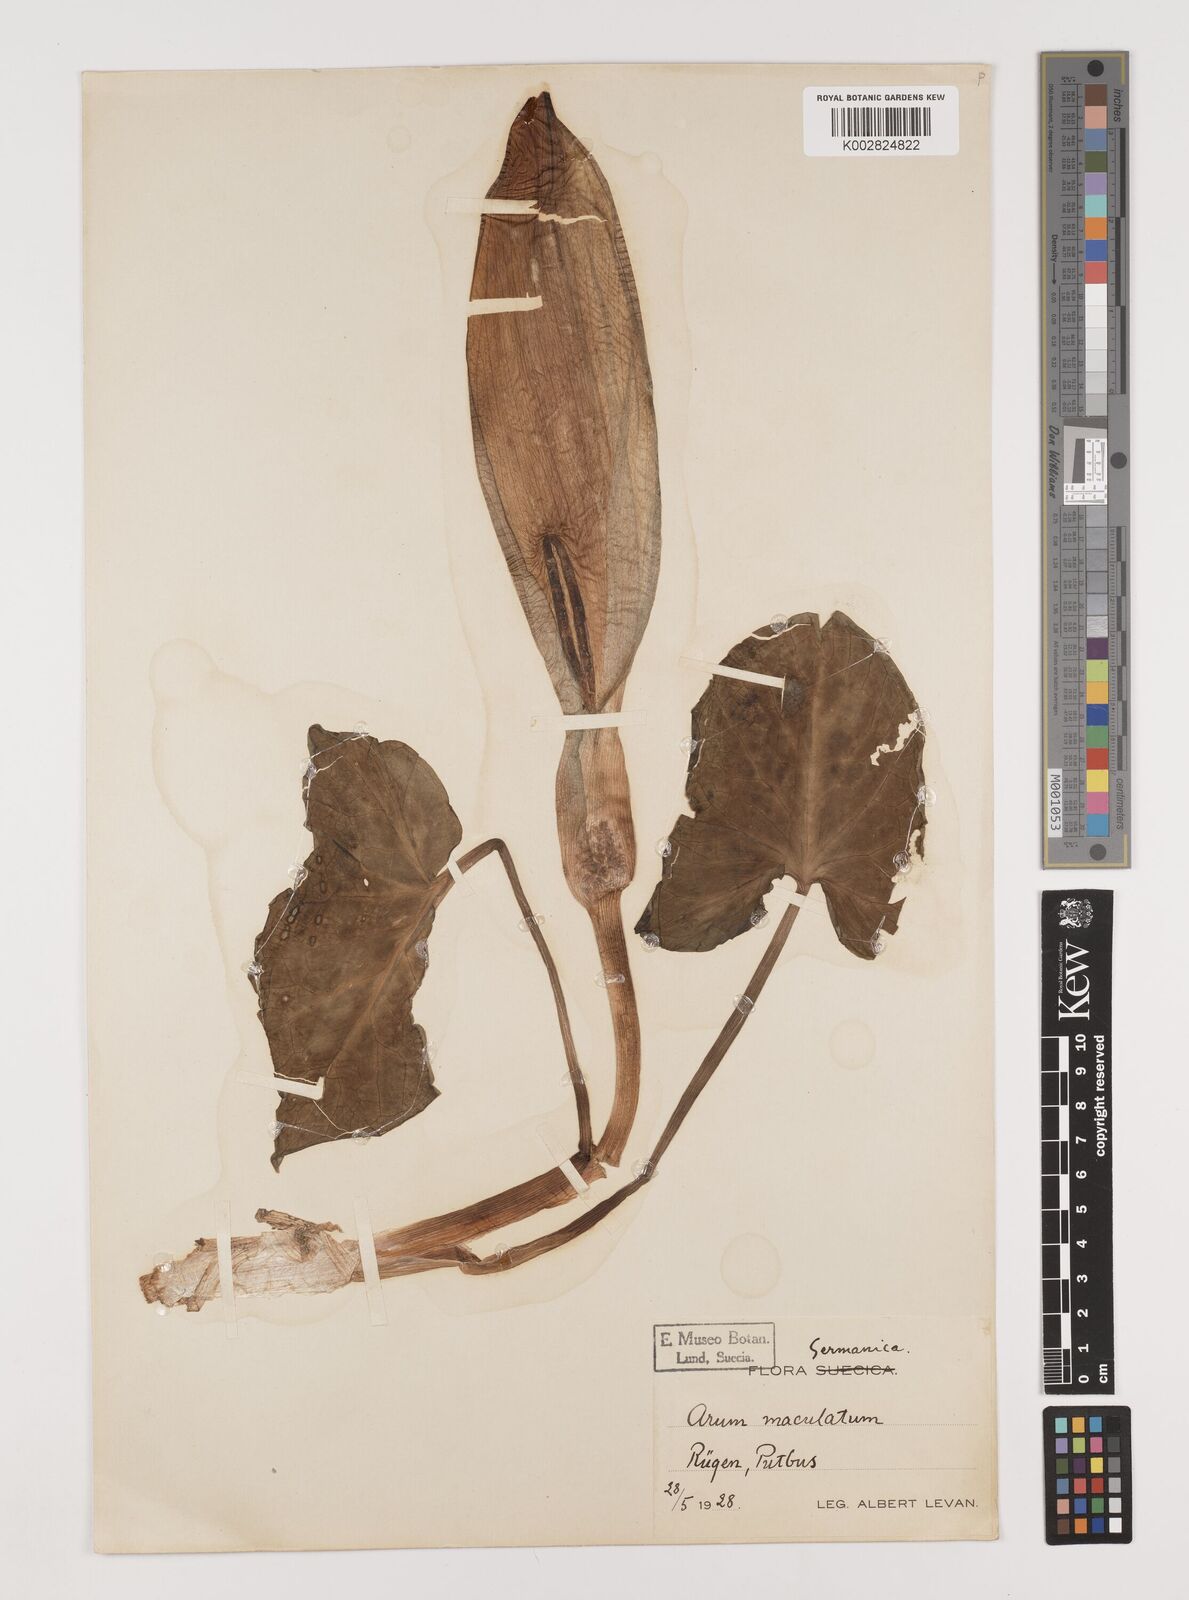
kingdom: Plantae
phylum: Tracheophyta
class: Liliopsida
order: Alismatales
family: Araceae
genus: Arum
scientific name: Arum maculatum
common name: Lords-and-ladies
